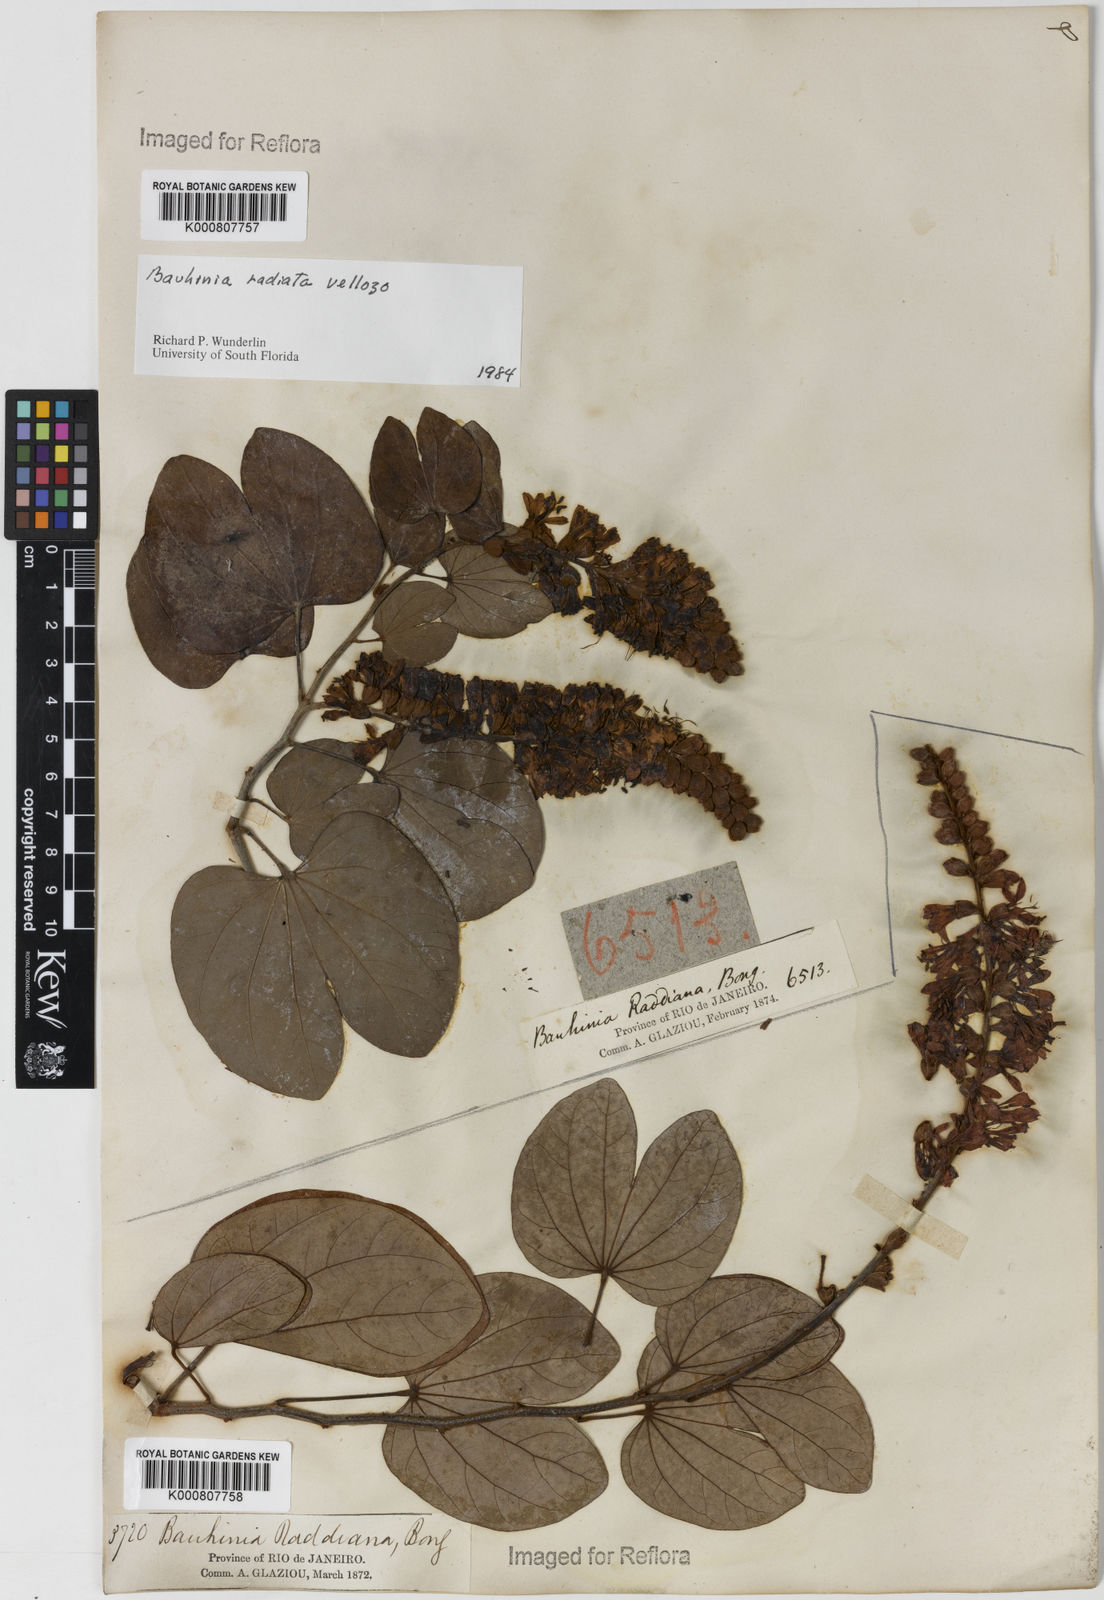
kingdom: Plantae
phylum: Tracheophyta
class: Magnoliopsida
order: Fabales
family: Fabaceae
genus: Schnella
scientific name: Schnella macrostachya
